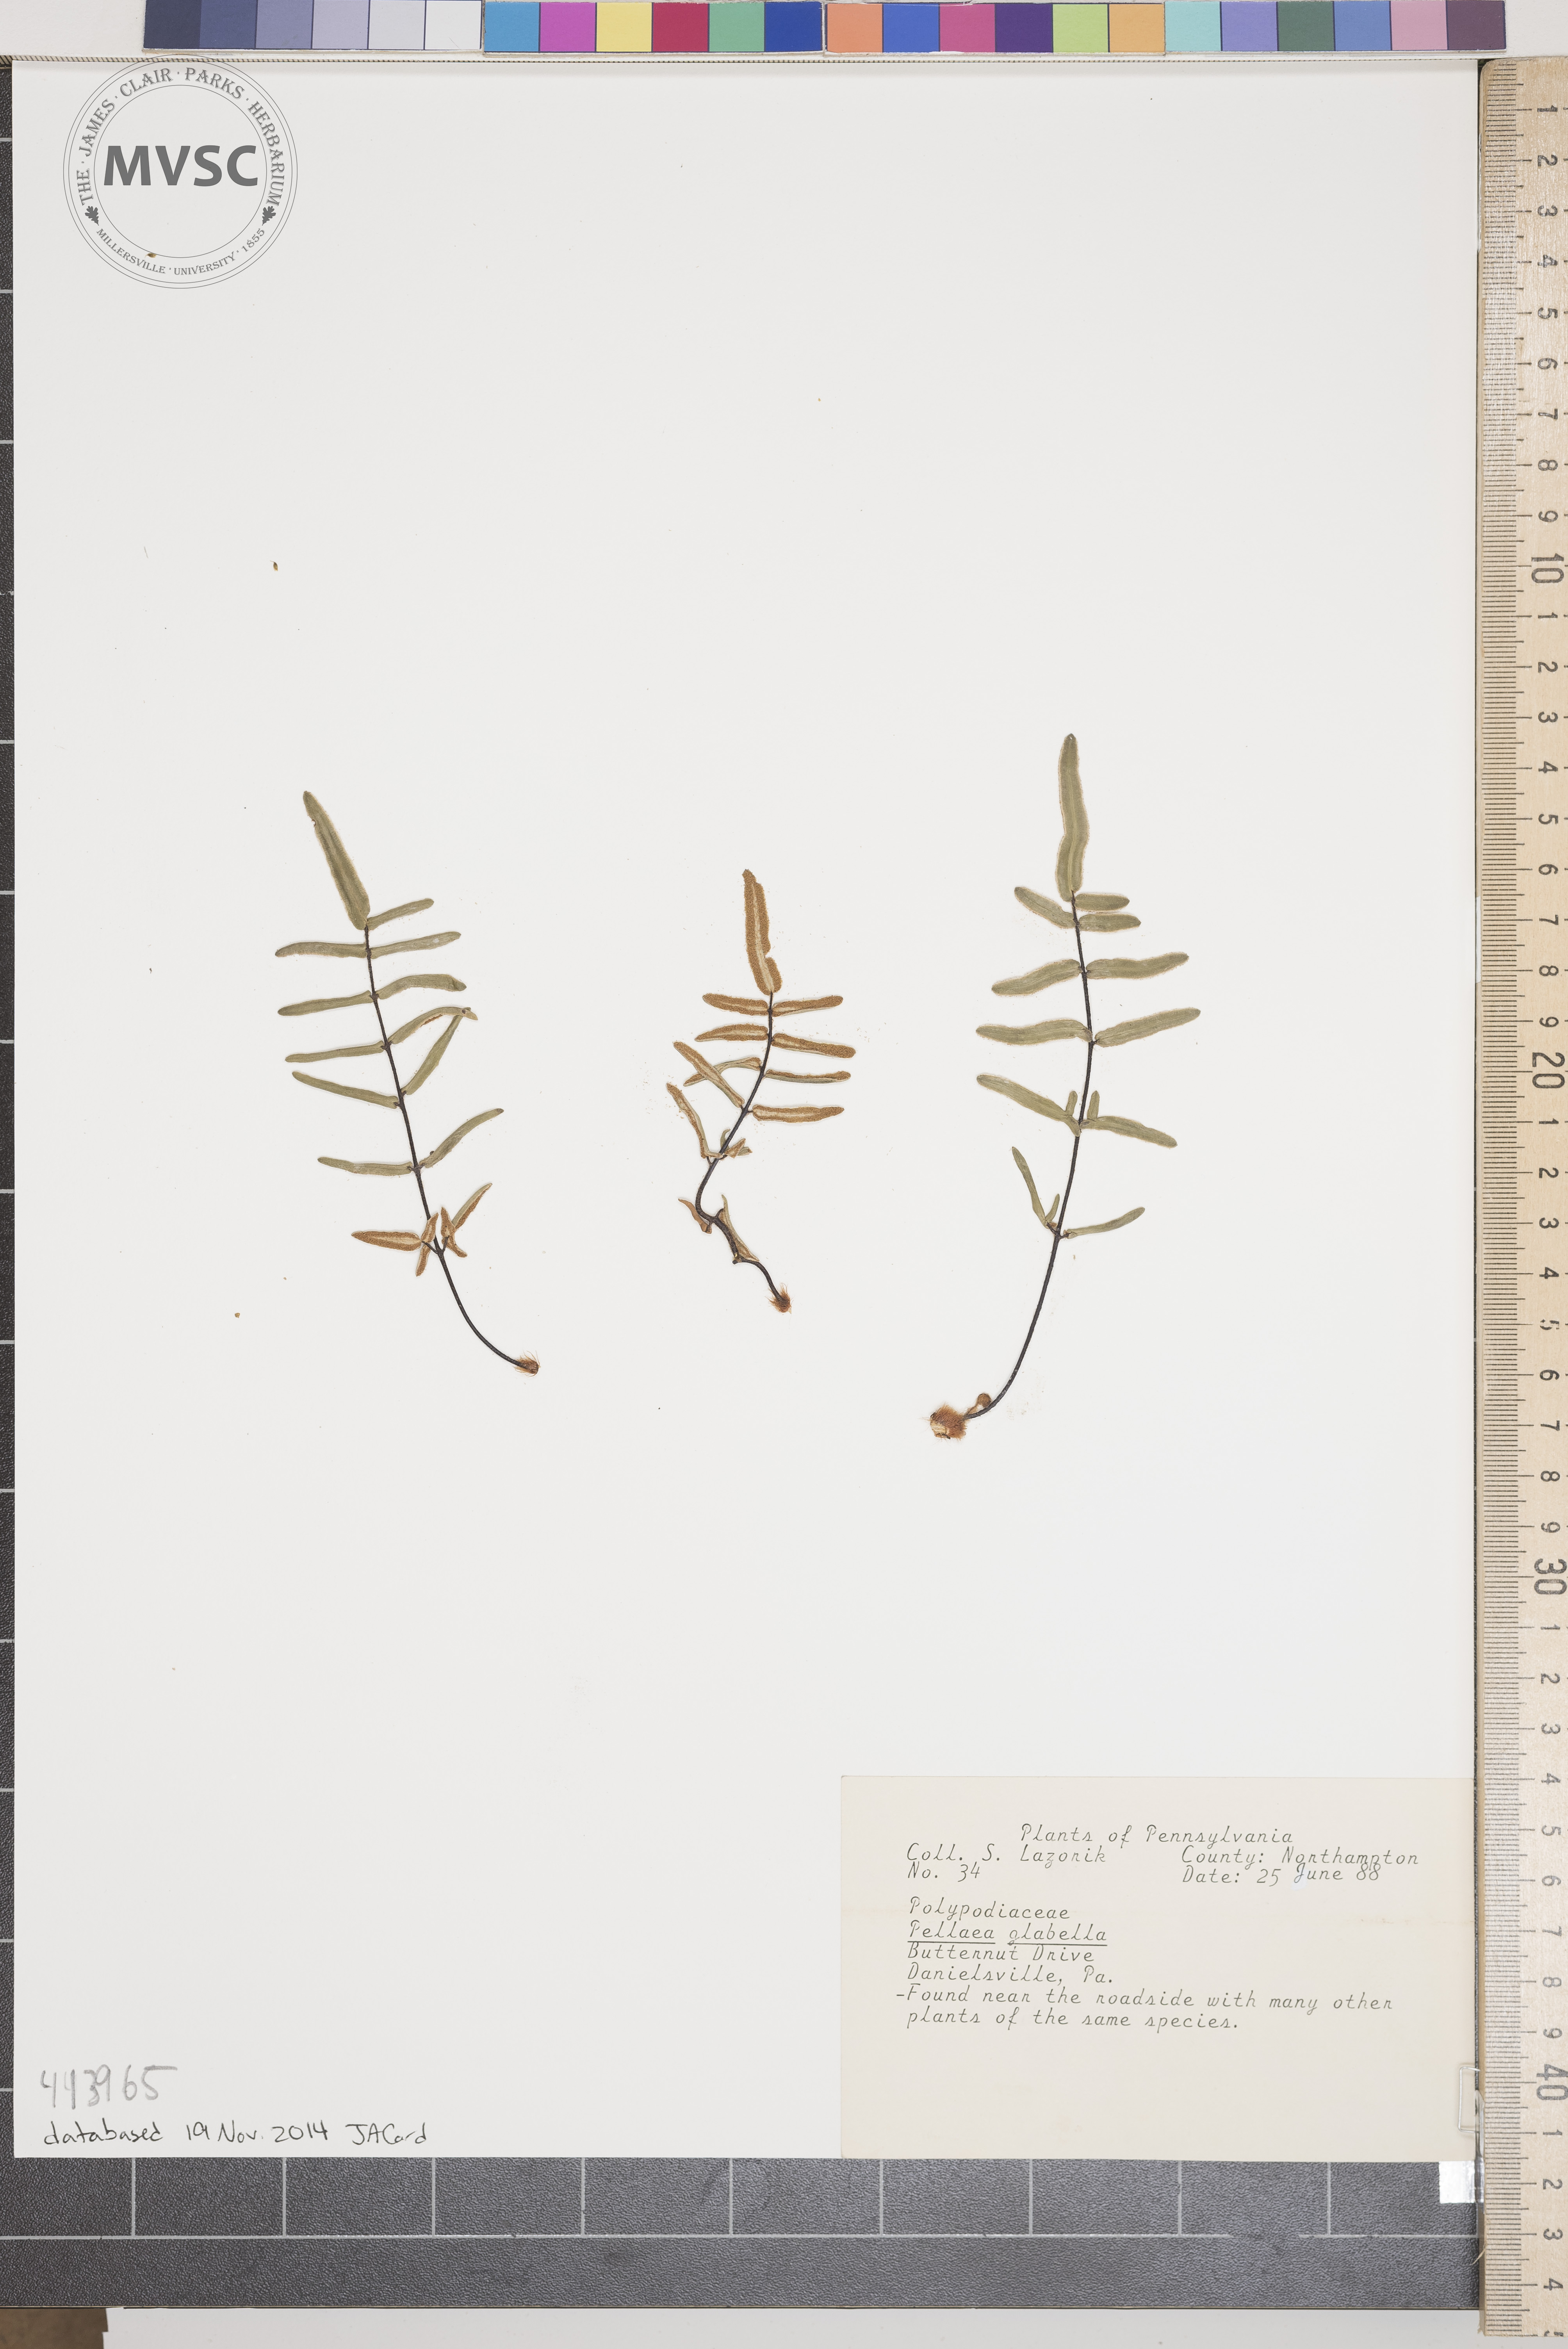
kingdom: Plantae
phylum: Tracheophyta
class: Polypodiopsida
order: Polypodiales
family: Pteridaceae
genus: Pellaea
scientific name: Pellaea glabella
